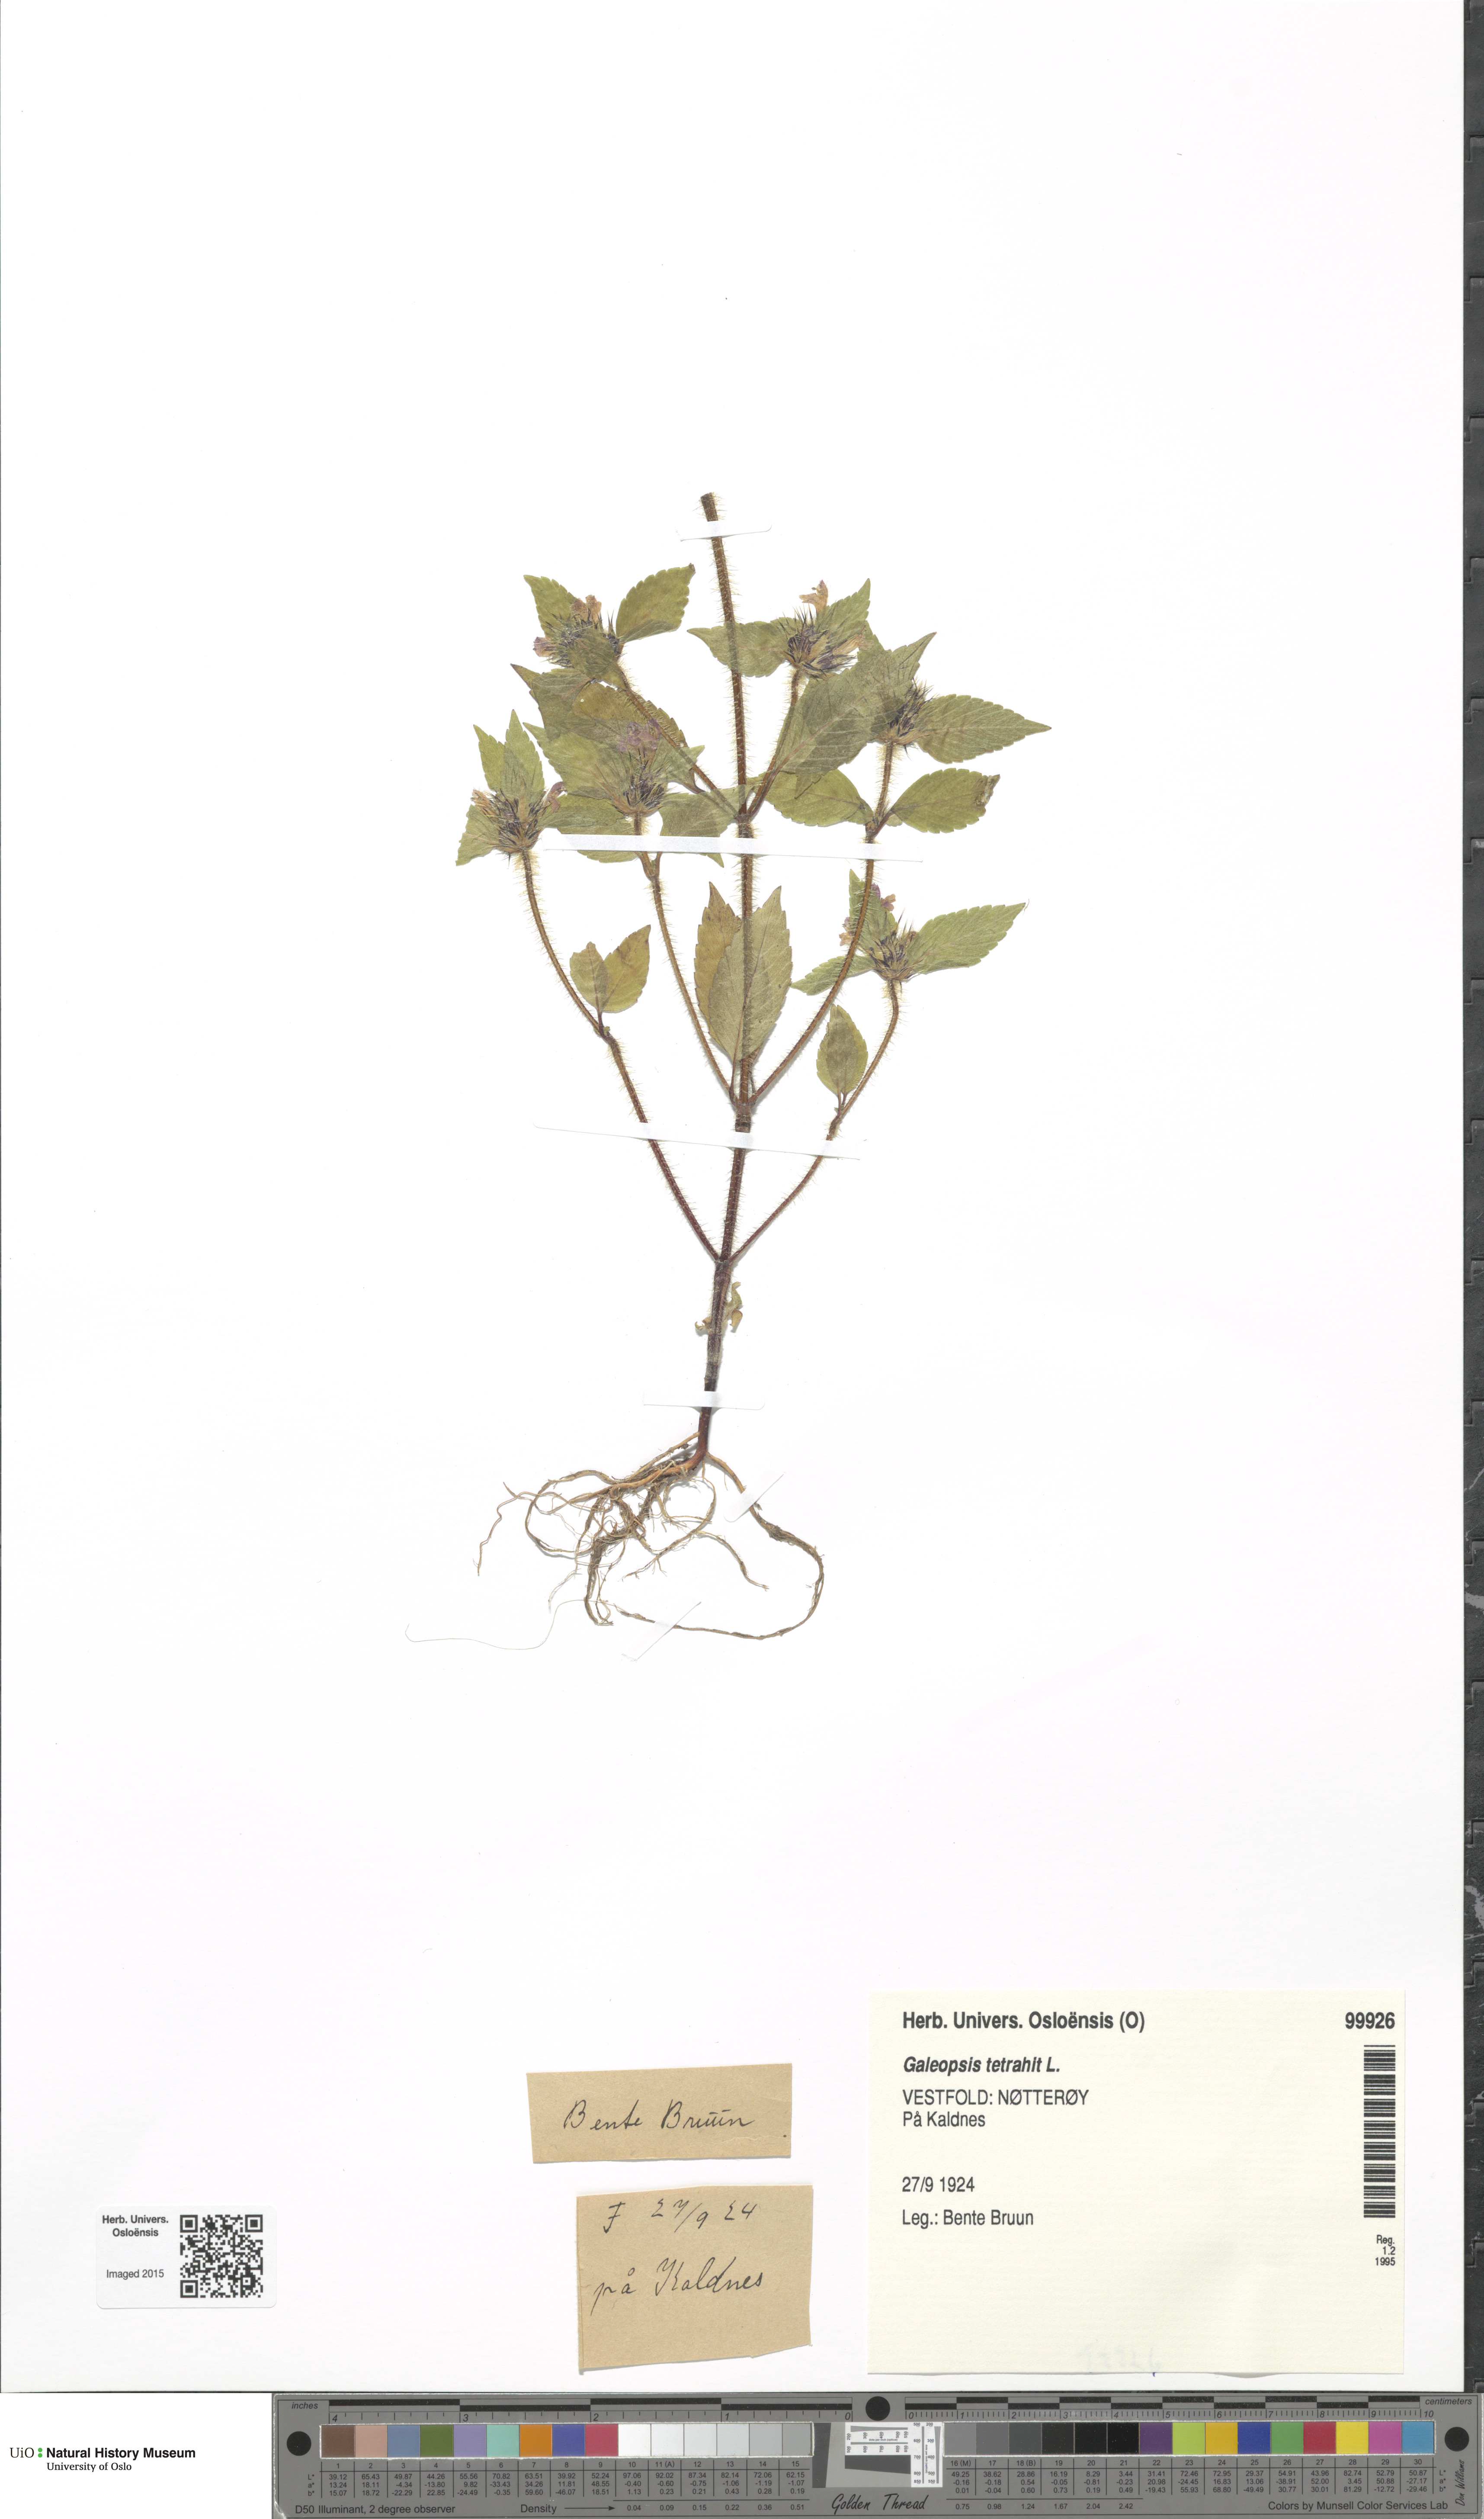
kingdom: Plantae
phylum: Tracheophyta
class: Magnoliopsida
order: Lamiales
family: Lamiaceae
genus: Galeopsis
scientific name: Galeopsis tetrahit
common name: Common hemp-nettle
